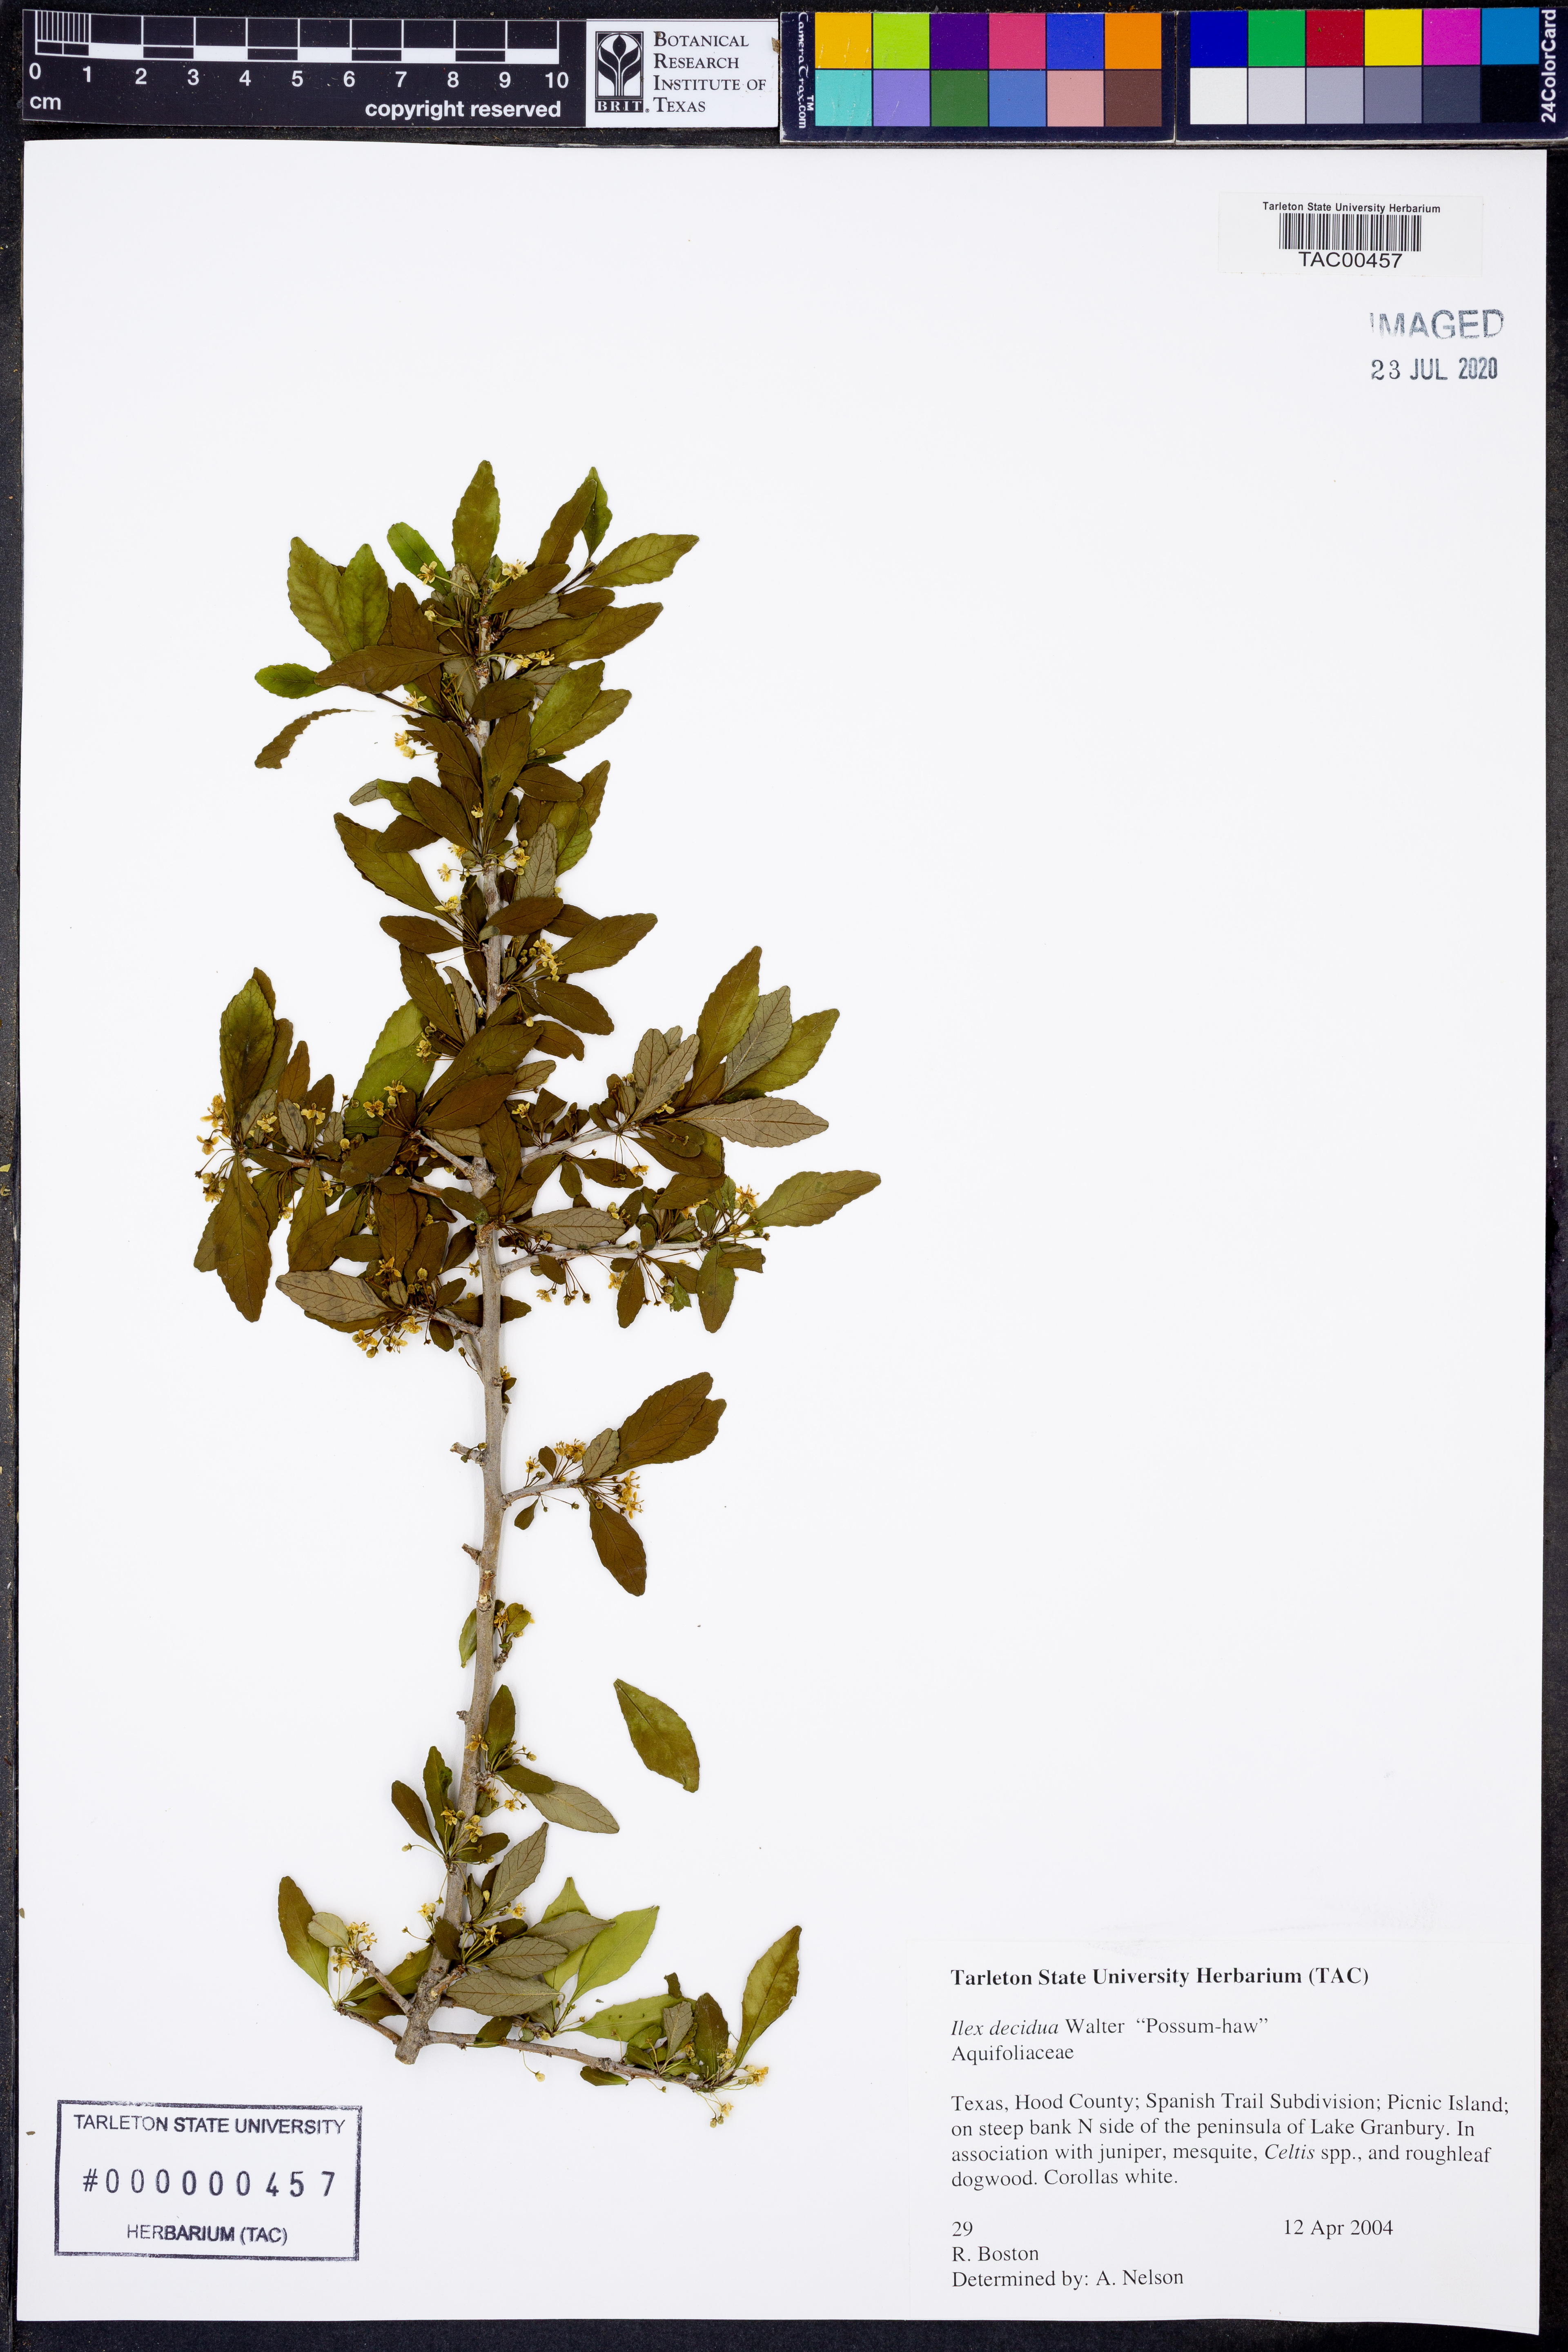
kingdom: Plantae
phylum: Tracheophyta
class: Magnoliopsida
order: Aquifoliales
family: Aquifoliaceae
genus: Ilex
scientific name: Ilex decidua
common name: Possum-haw
